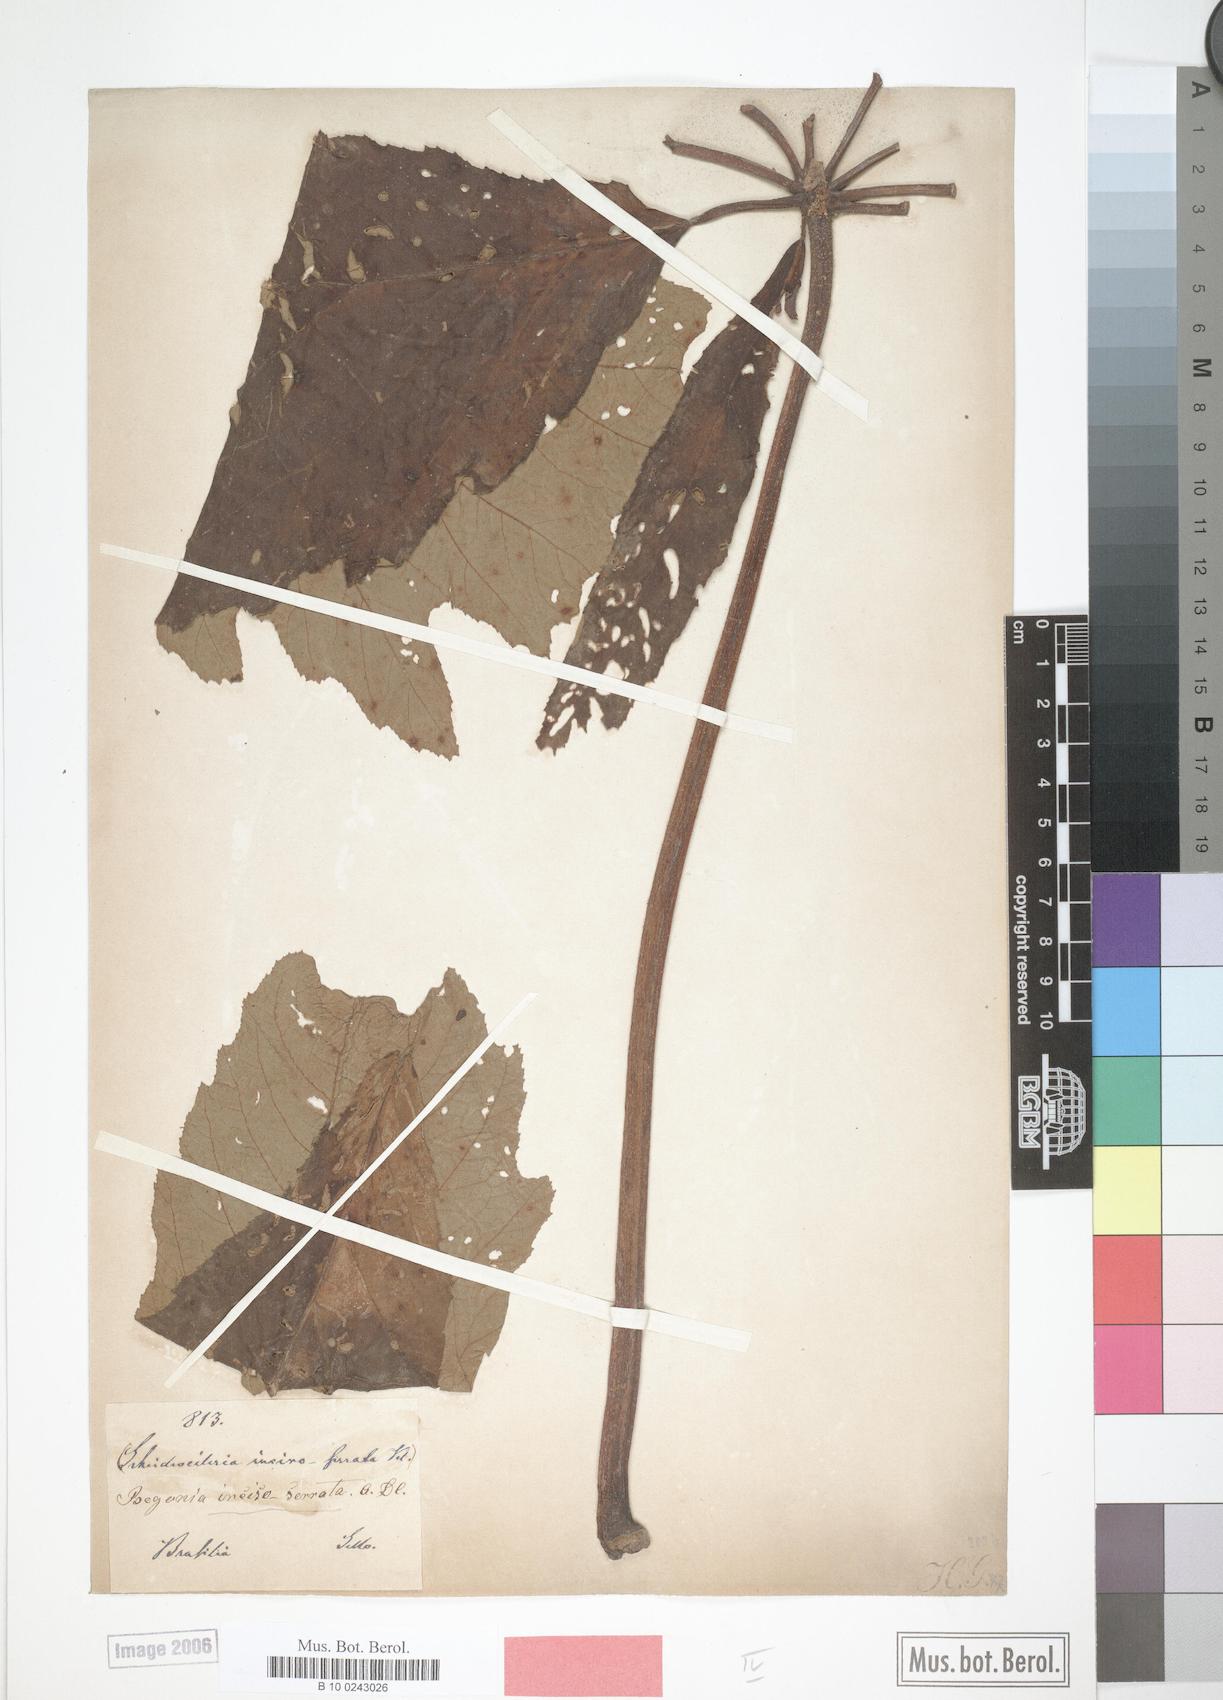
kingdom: Plantae
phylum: Tracheophyta
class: Magnoliopsida
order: Cucurbitales
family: Begoniaceae
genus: Begonia
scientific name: Begonia incisoserrata
